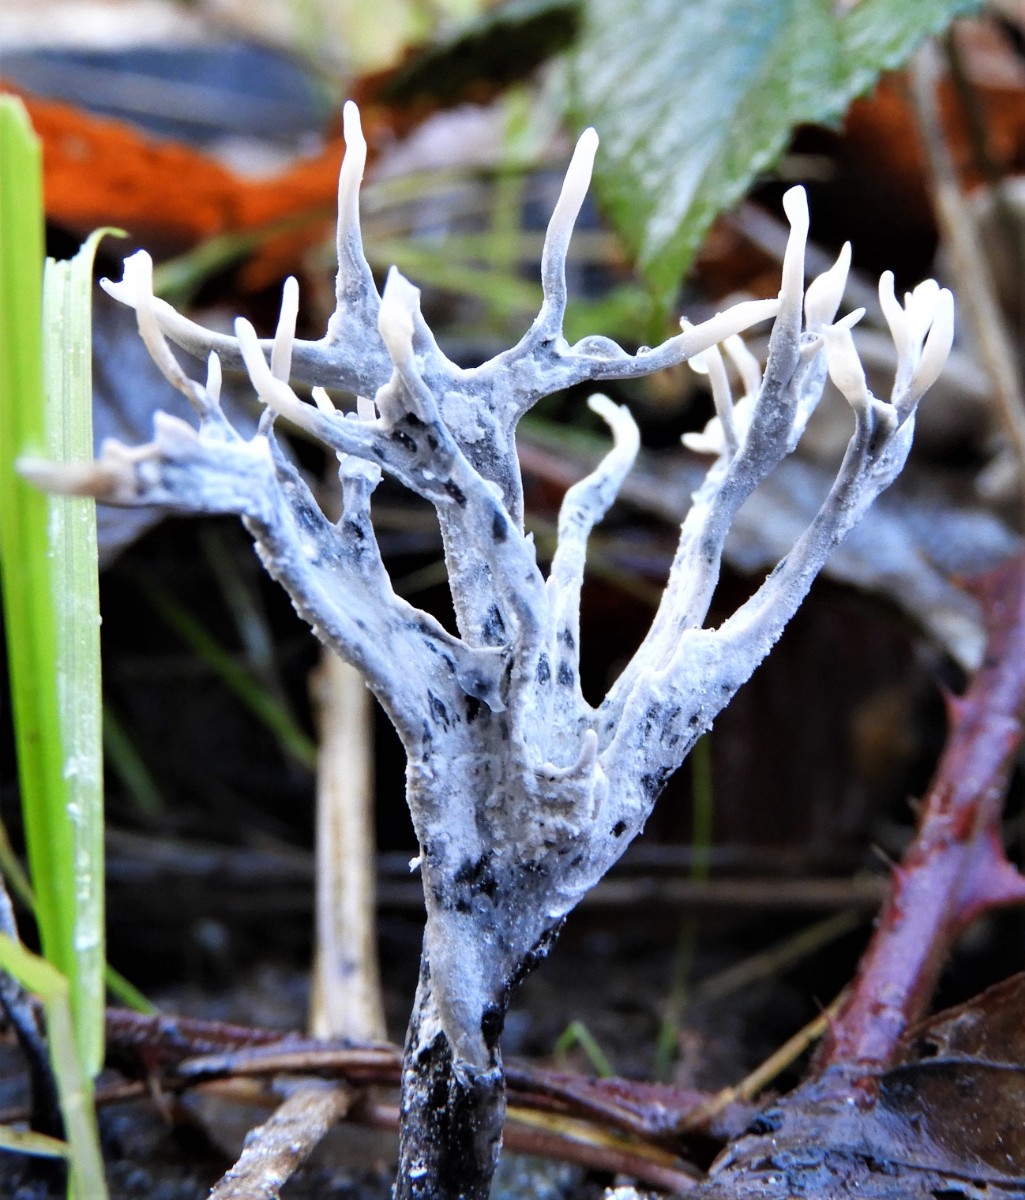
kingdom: Fungi
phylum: Ascomycota
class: Sordariomycetes
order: Xylariales
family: Xylariaceae
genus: Xylaria
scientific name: Xylaria hypoxylon
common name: grenet stødsvamp
